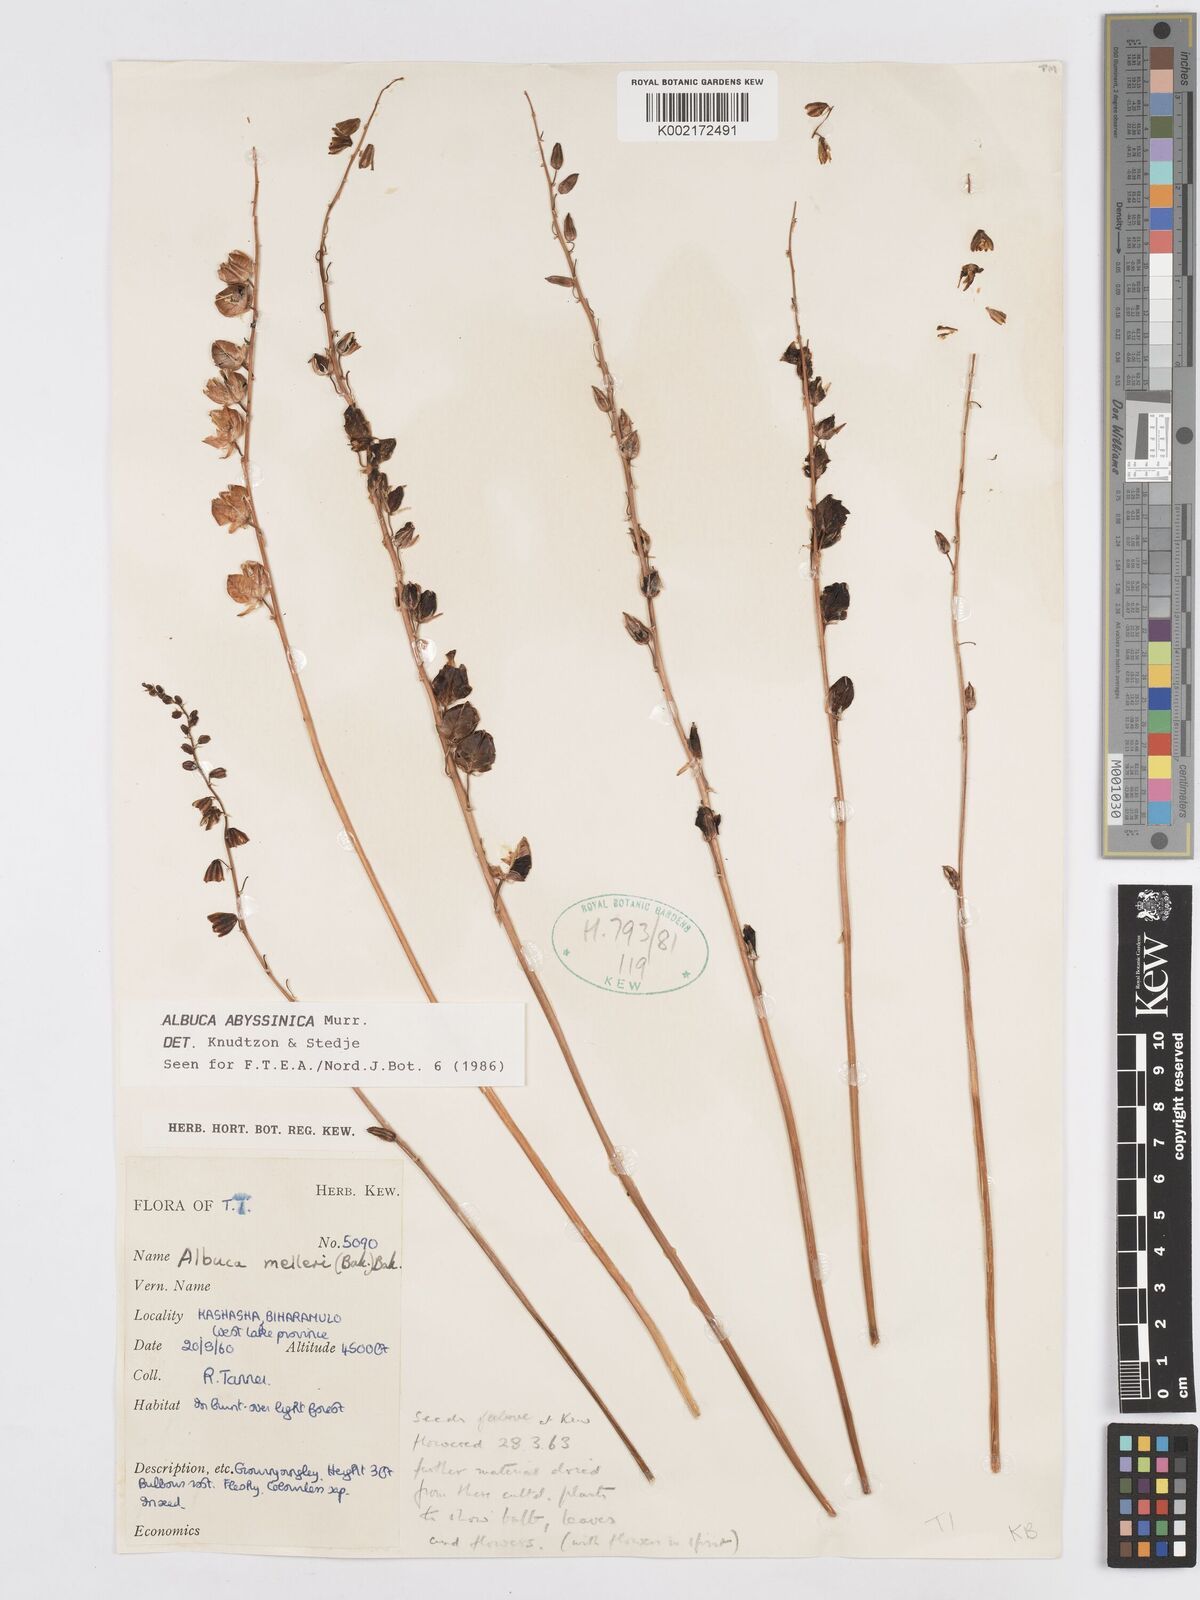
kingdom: Plantae
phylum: Tracheophyta
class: Liliopsida
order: Asparagales
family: Asparagaceae
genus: Albuca
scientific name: Albuca abyssinica
